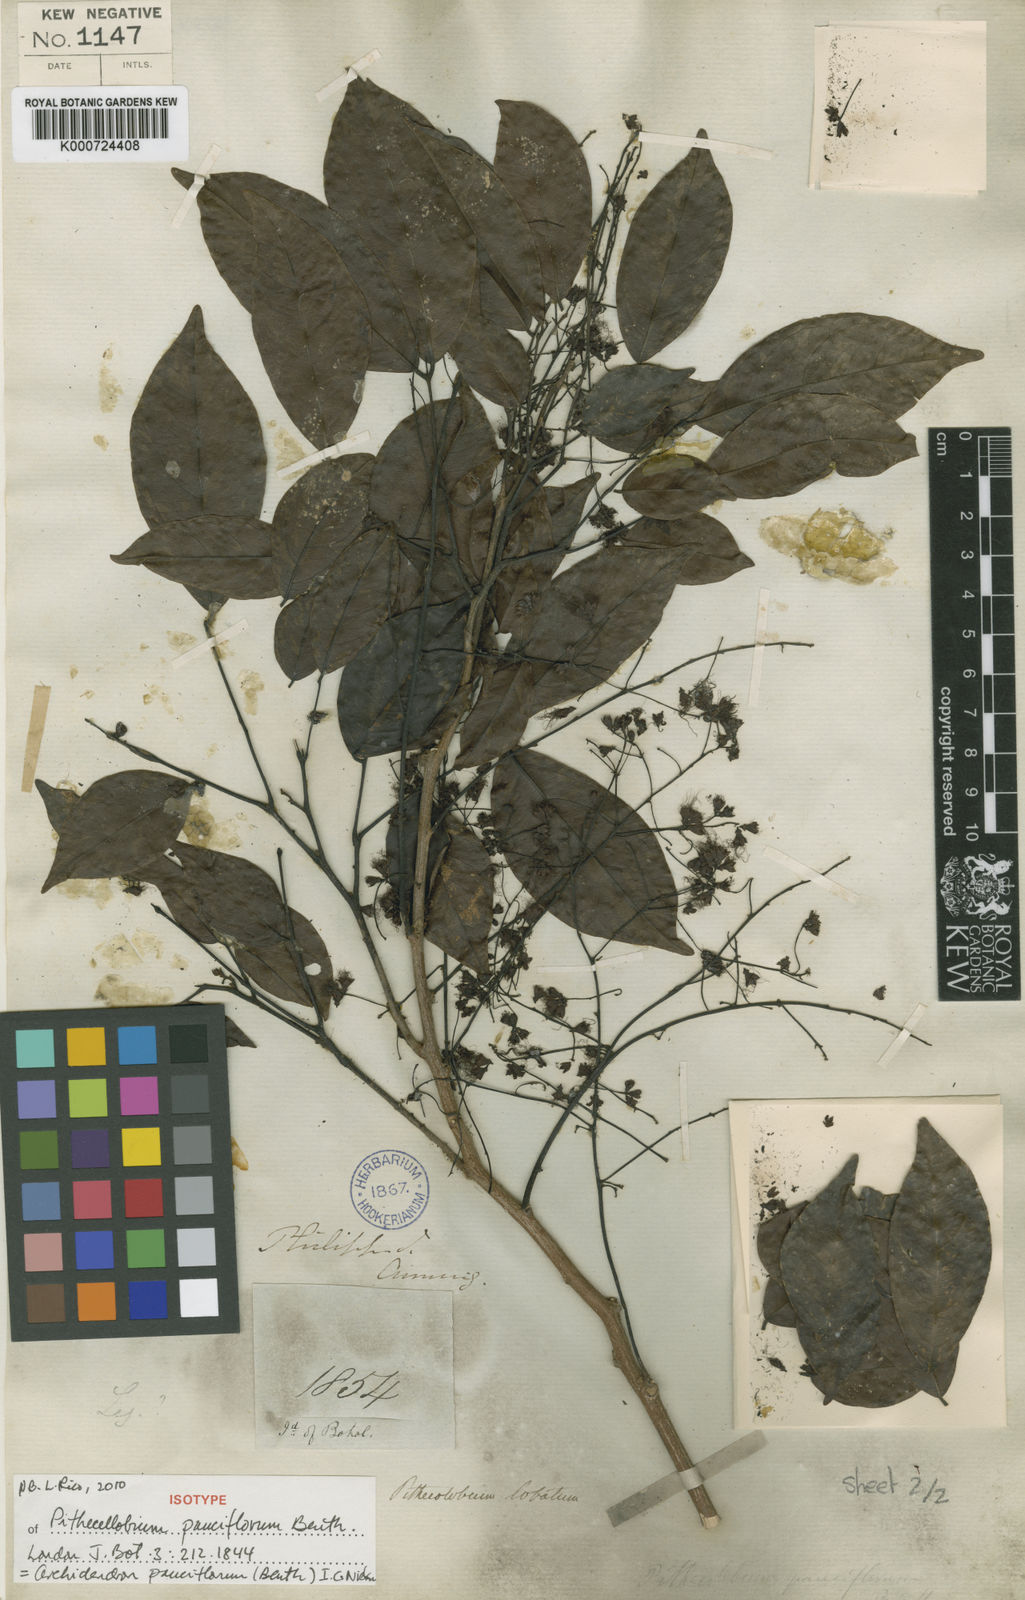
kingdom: Plantae
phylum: Tracheophyta
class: Magnoliopsida
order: Fabales
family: Fabaceae
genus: Archidendron
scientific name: Archidendron pauciflorum
